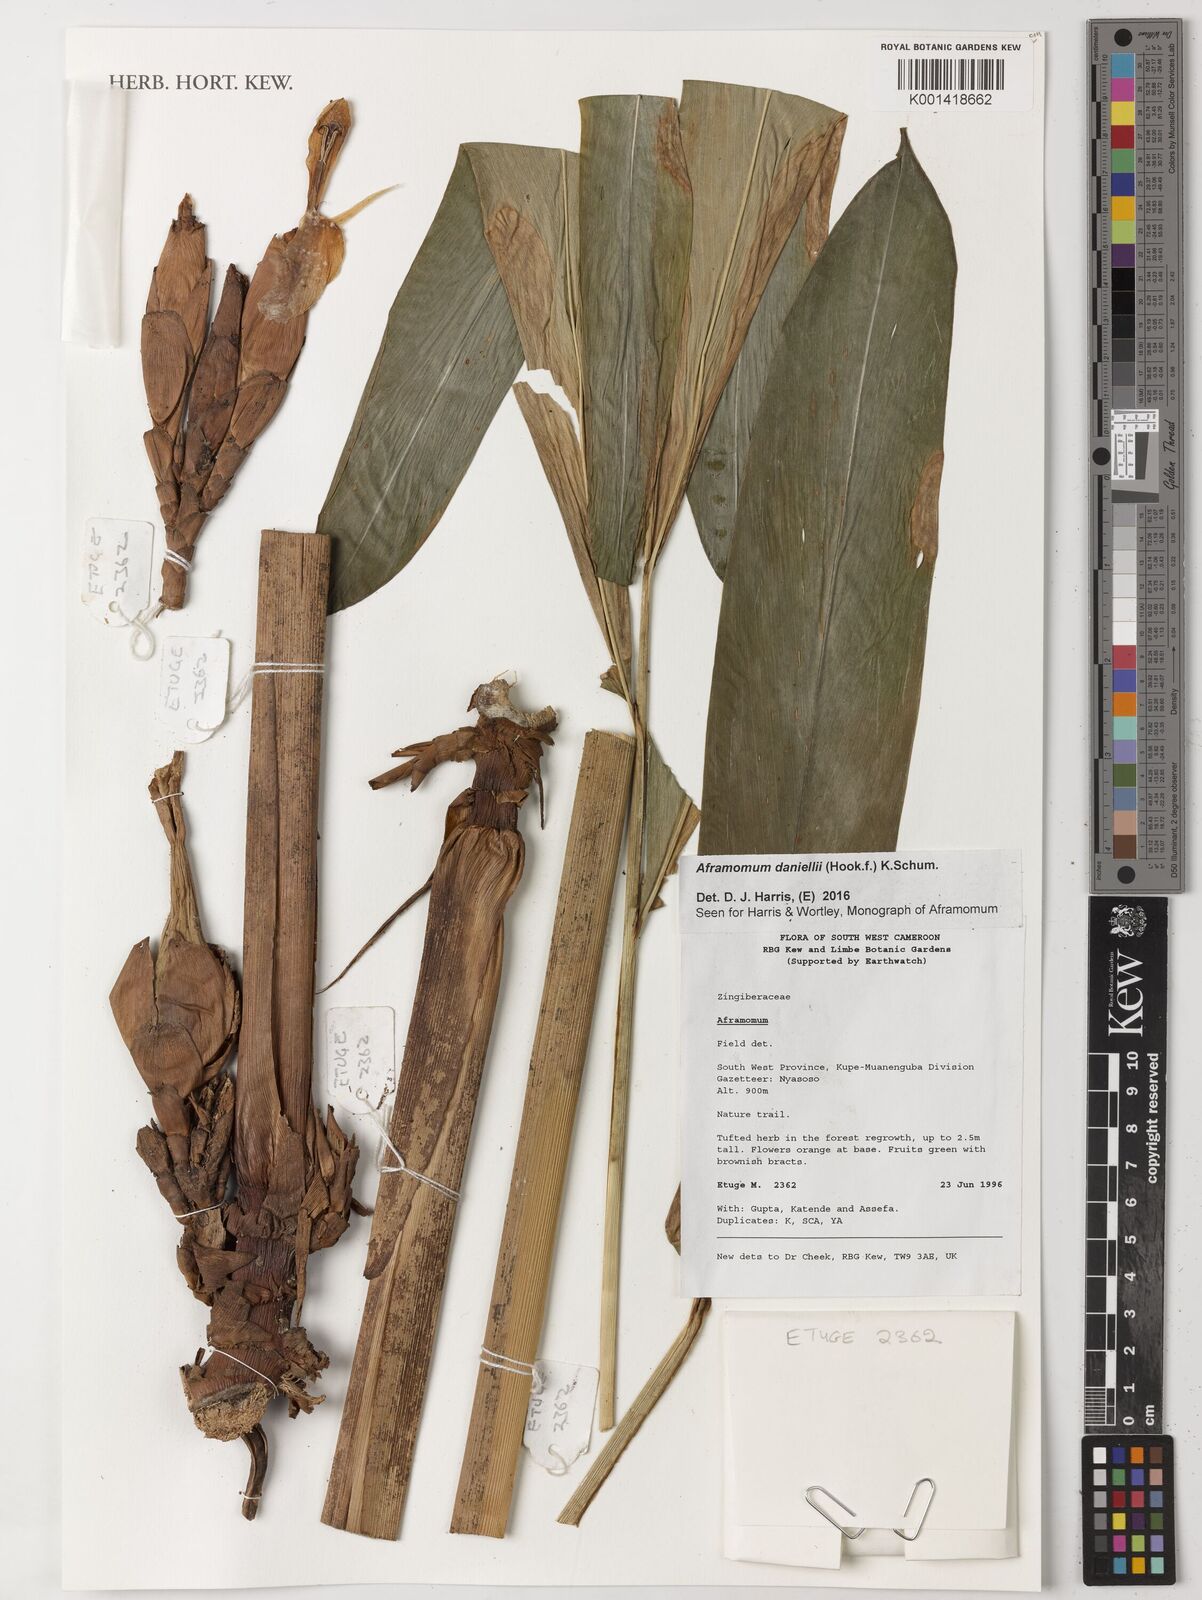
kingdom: Plantae
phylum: Tracheophyta
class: Liliopsida
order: Zingiberales
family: Zingiberaceae
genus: Aframomum
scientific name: Aframomum daniellii
